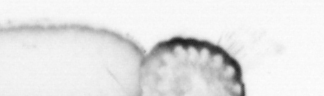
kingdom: Animalia
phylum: Annelida
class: Polychaeta
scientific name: Polychaeta
